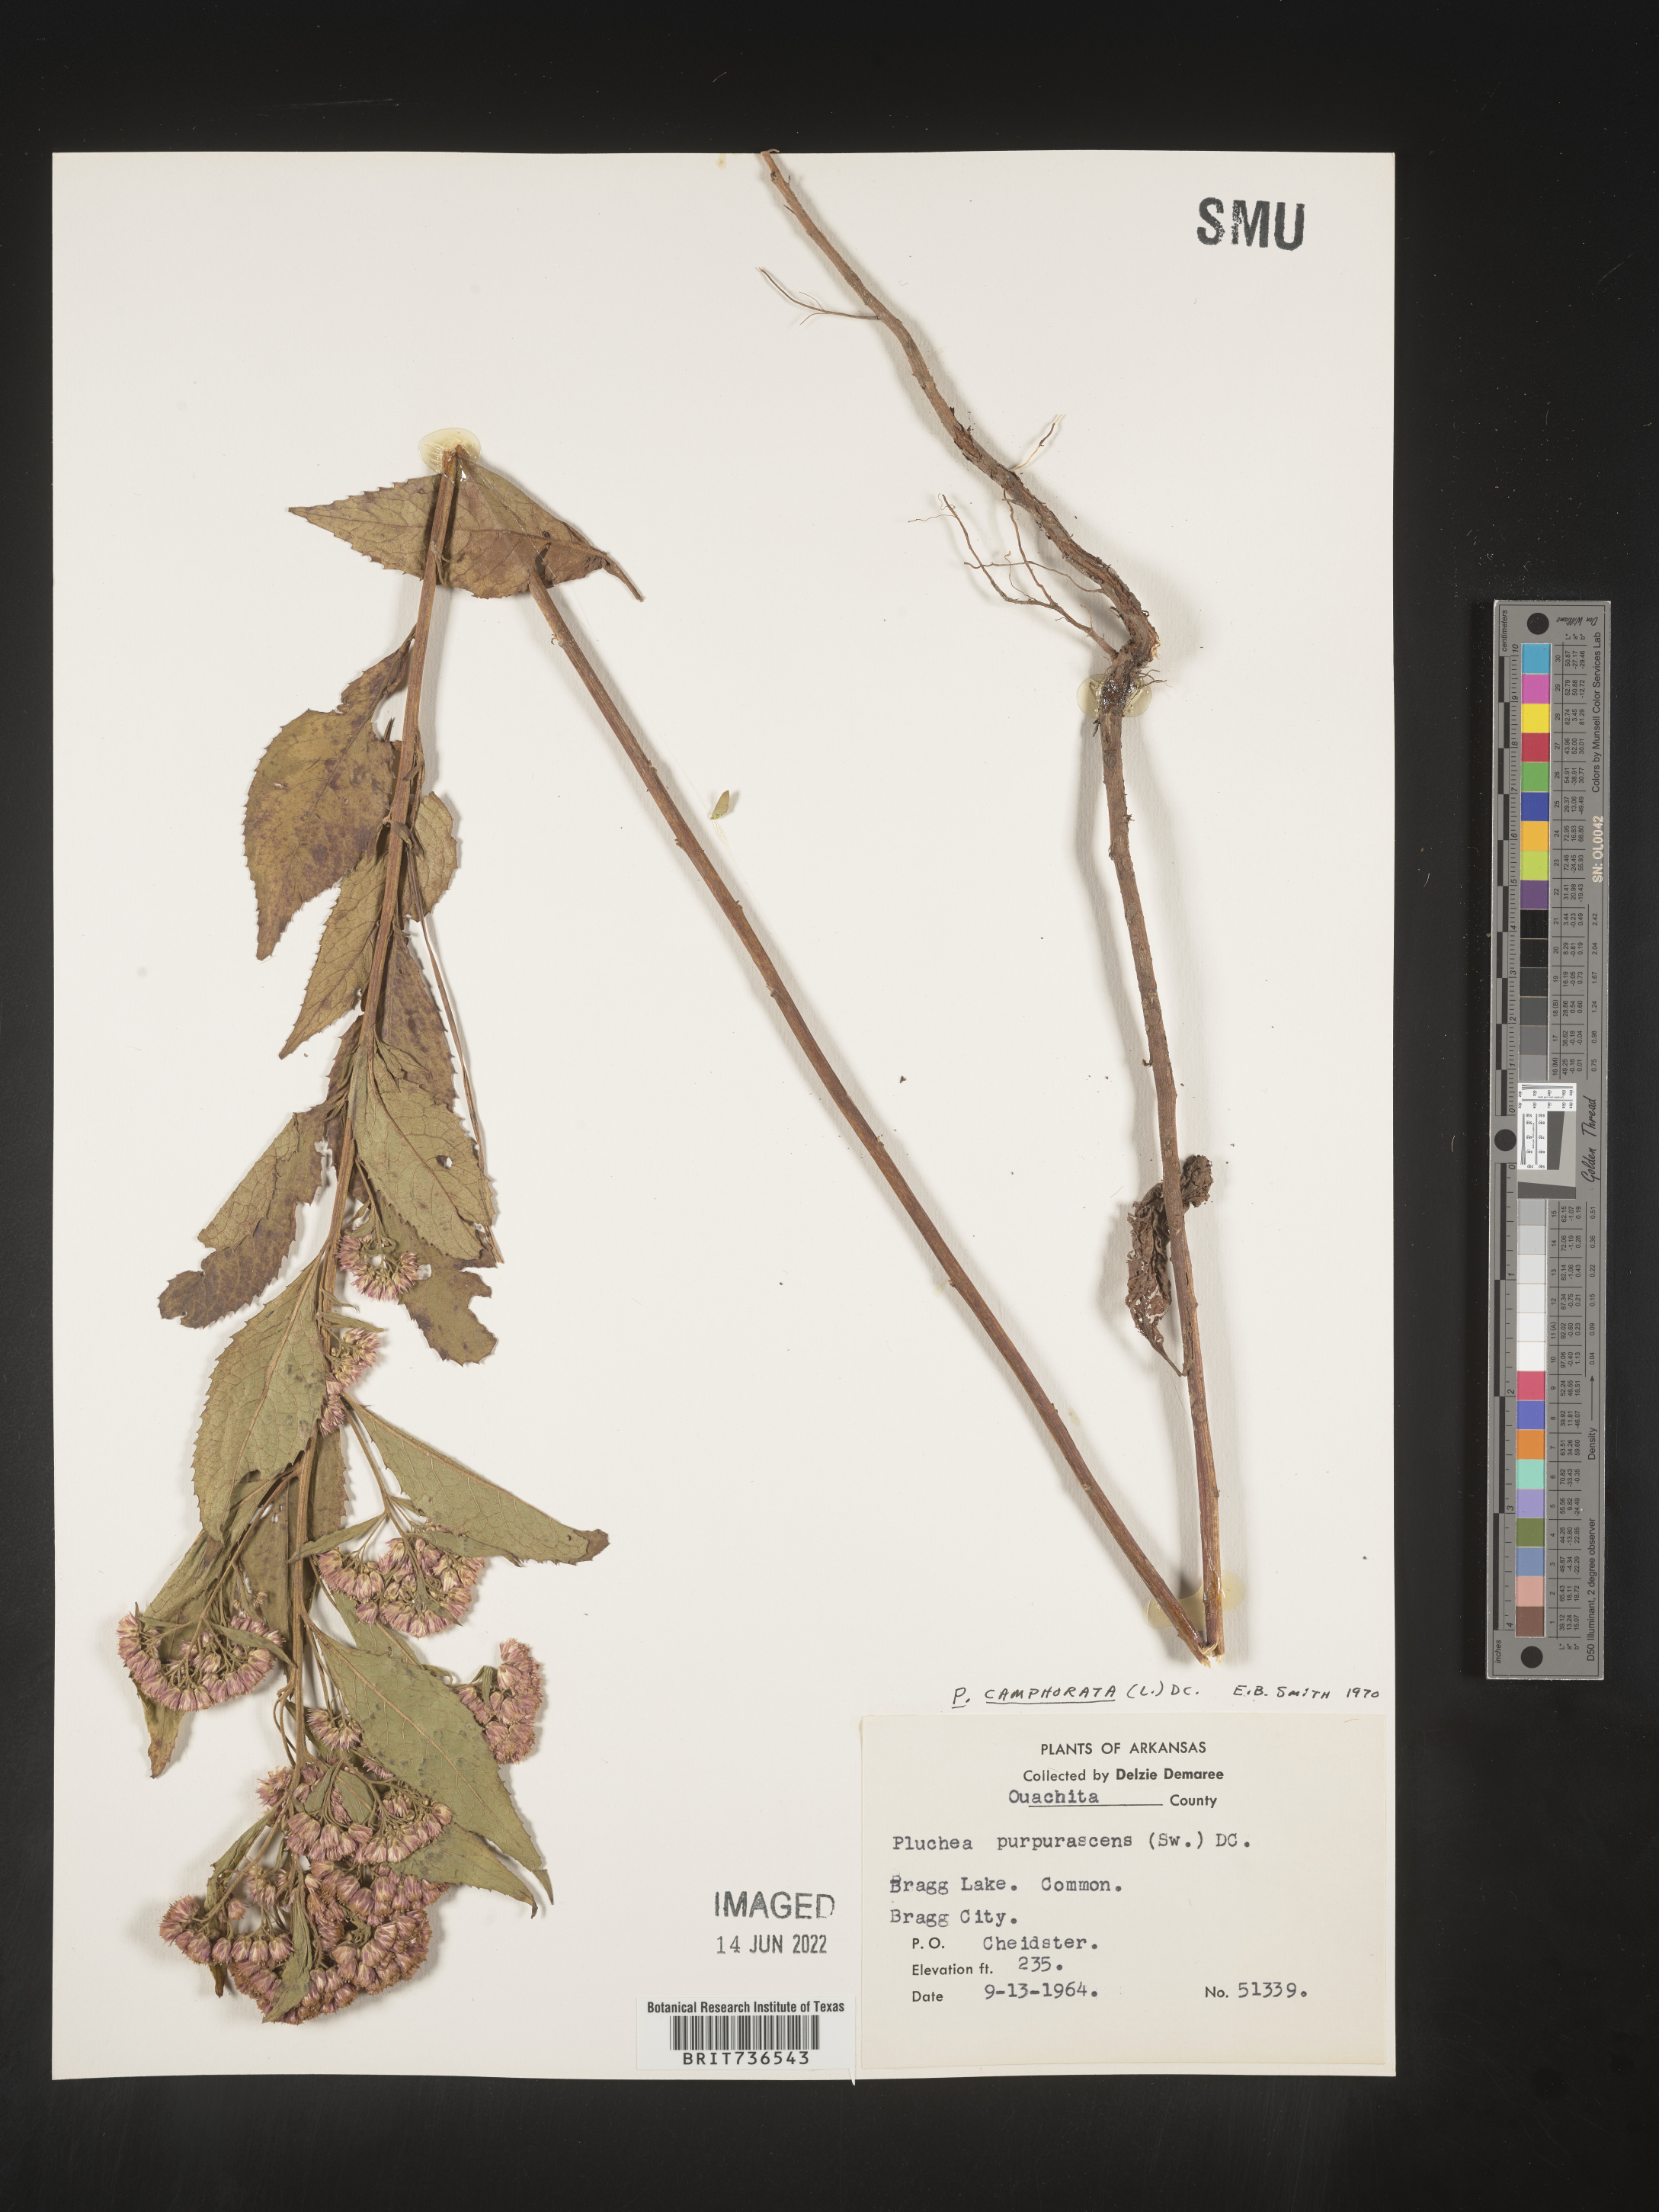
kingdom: Plantae
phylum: Tracheophyta
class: Magnoliopsida
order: Asterales
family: Asteraceae
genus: Pluchea
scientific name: Pluchea camphorata
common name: Camphor pluchea
